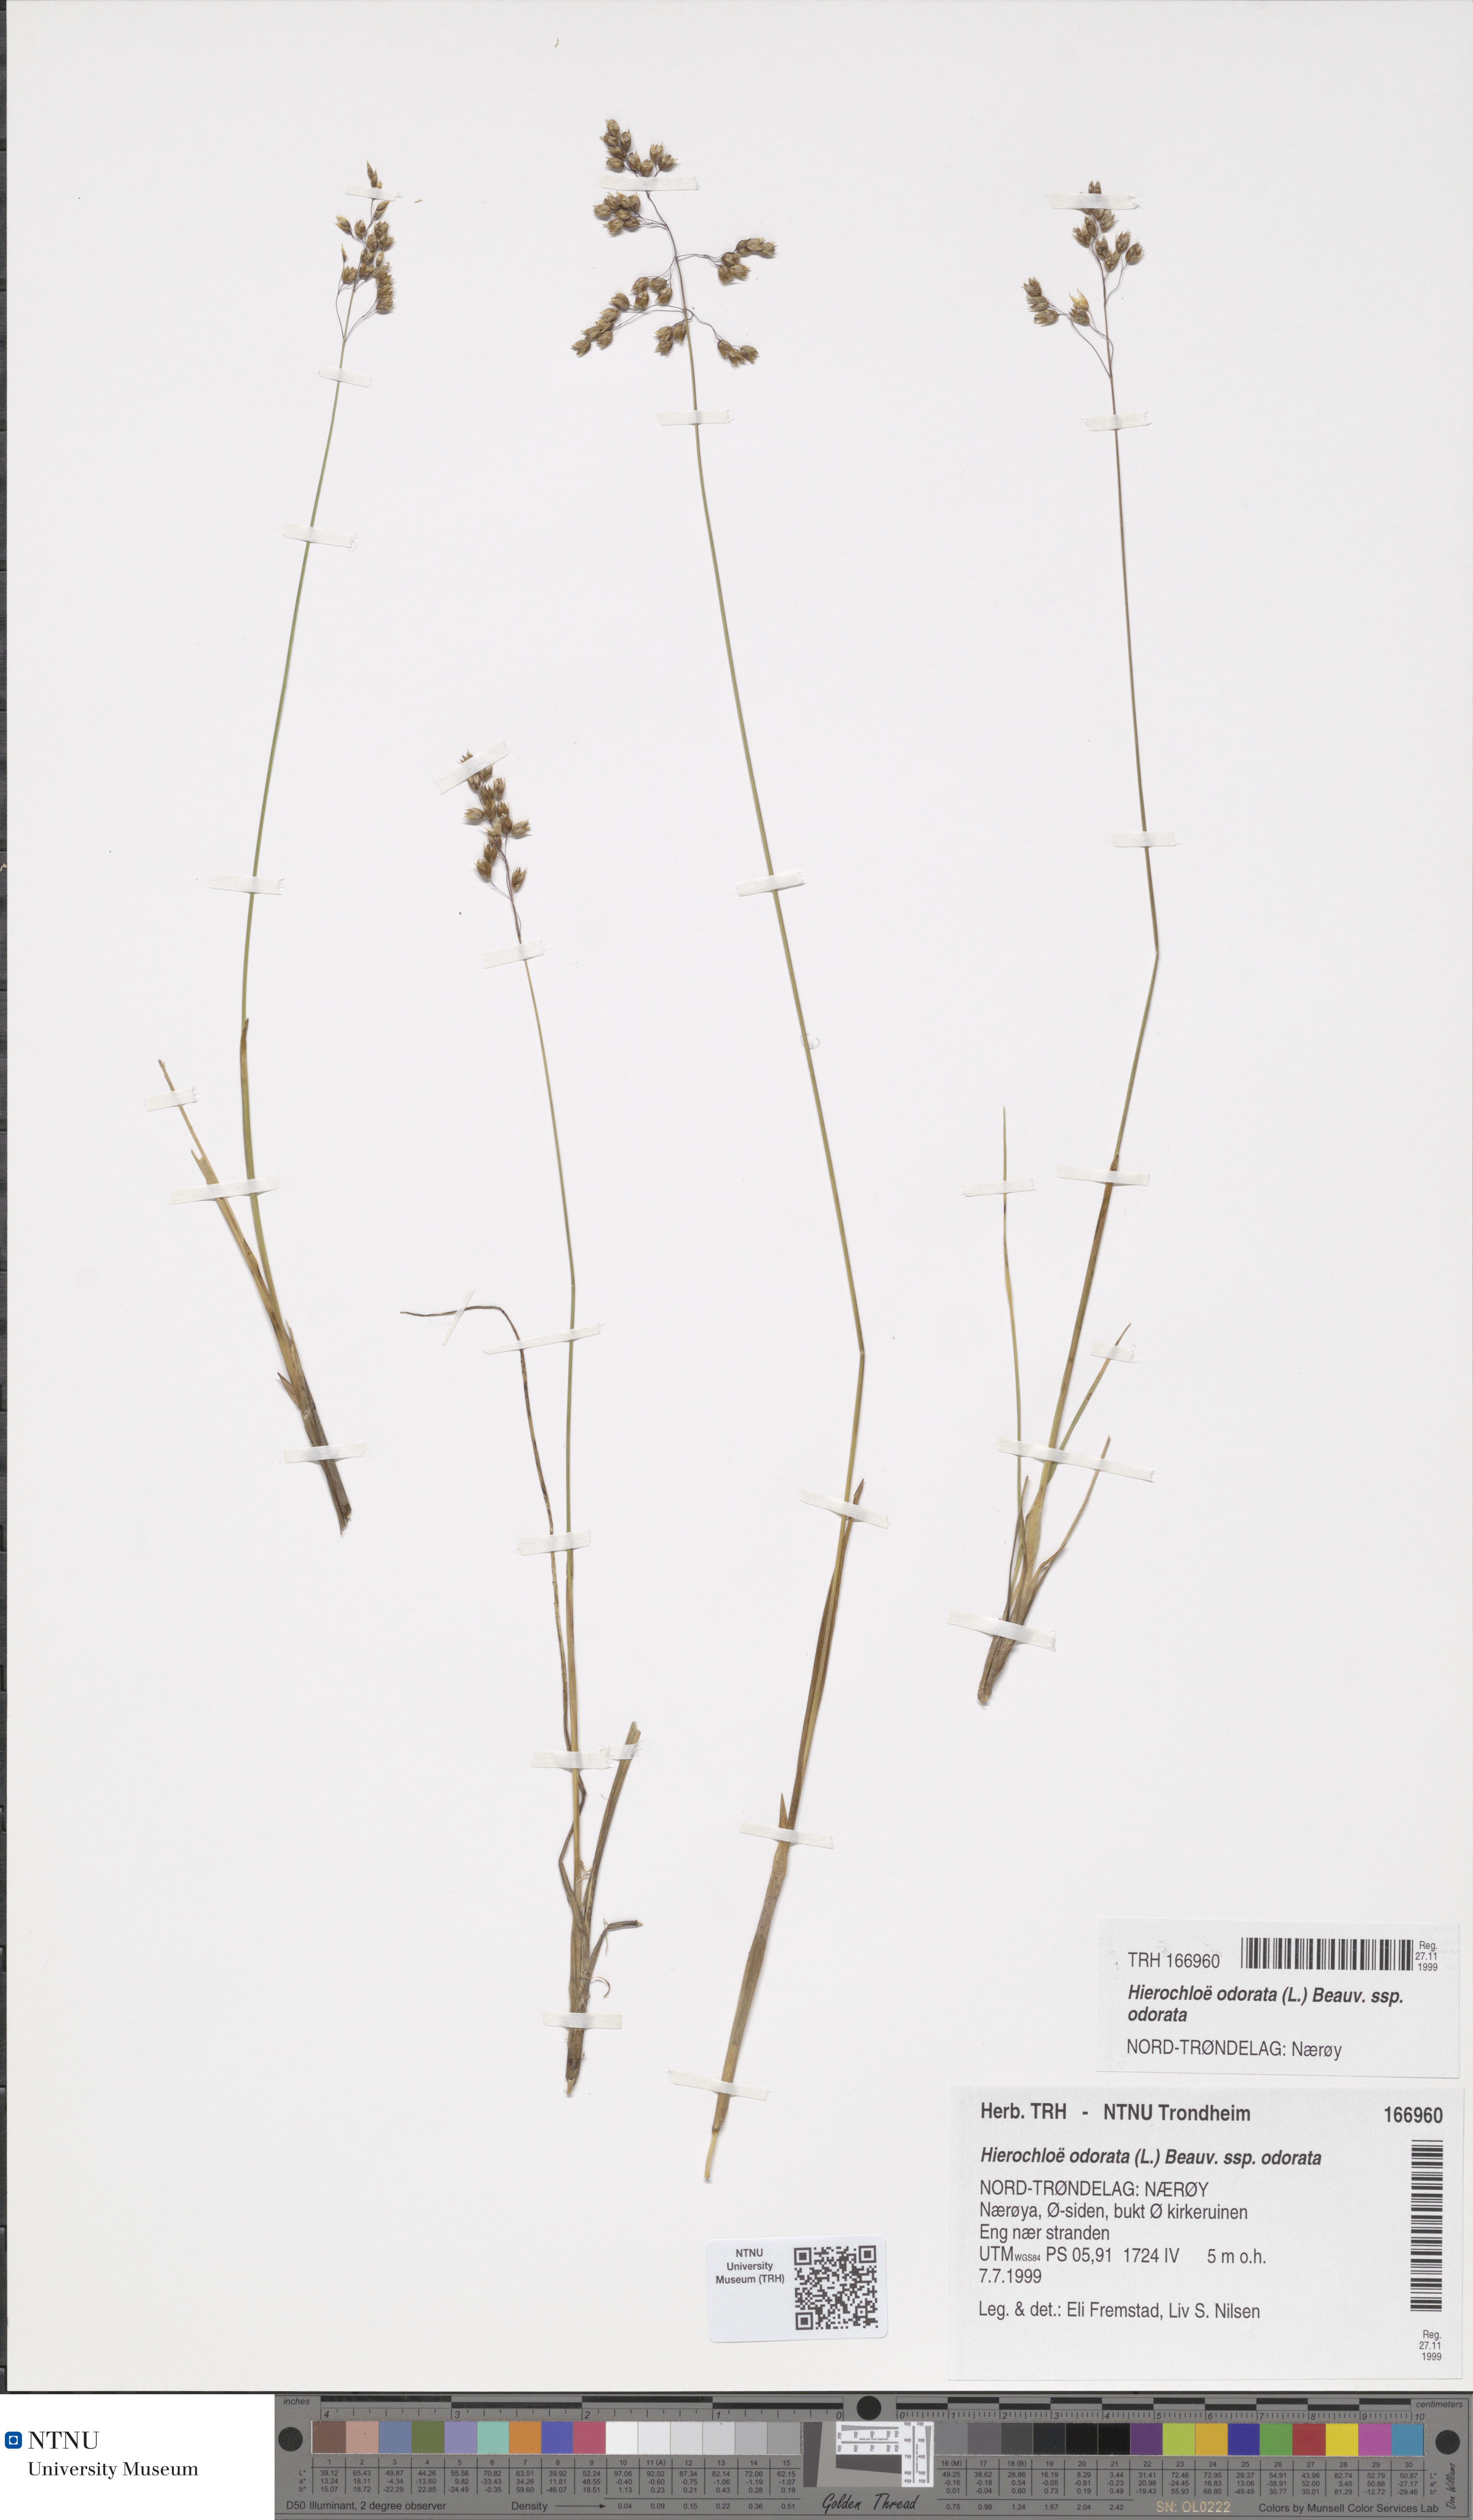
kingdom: Plantae
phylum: Tracheophyta
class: Liliopsida
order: Poales
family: Poaceae
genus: Anthoxanthum
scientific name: Anthoxanthum nitens
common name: Holy grass
